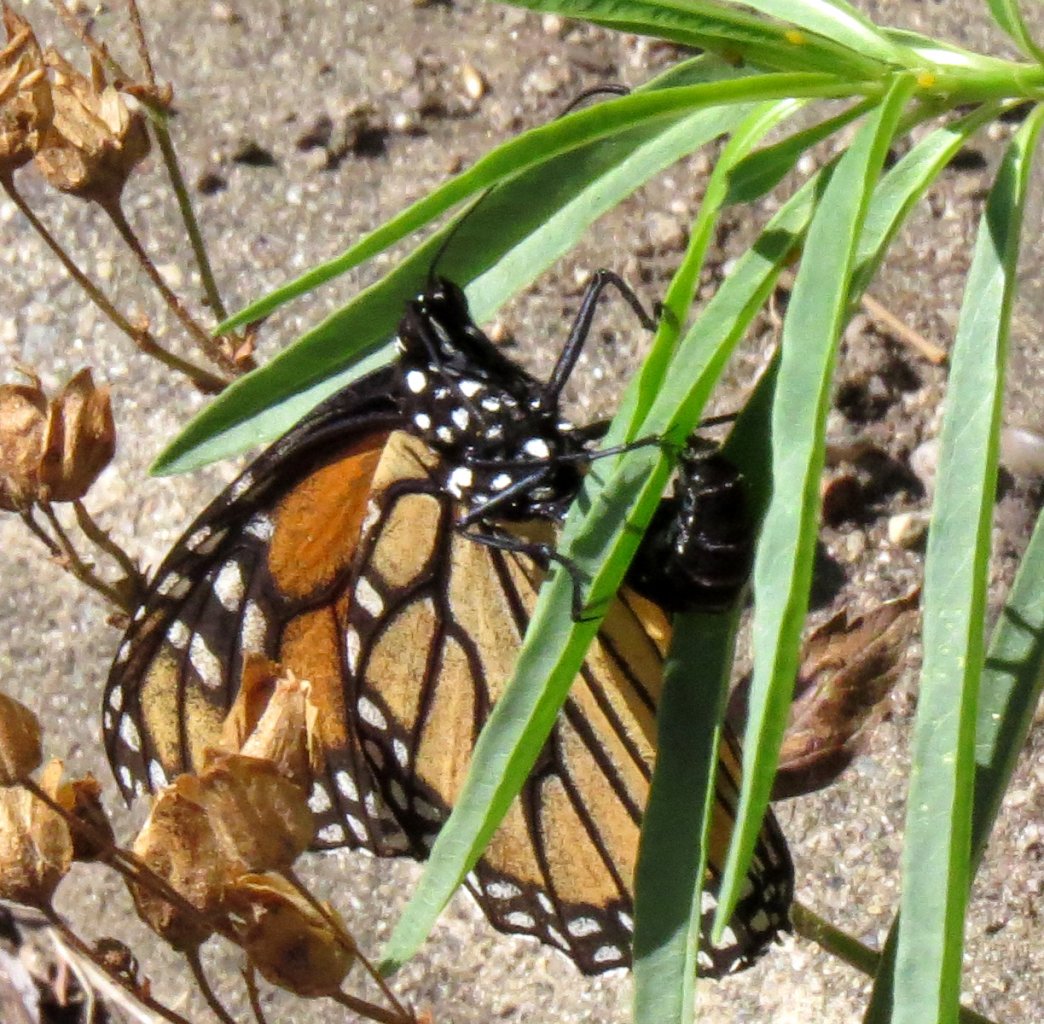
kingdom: Animalia
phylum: Arthropoda
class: Insecta
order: Lepidoptera
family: Nymphalidae
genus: Danaus
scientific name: Danaus plexippus
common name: Monarch
